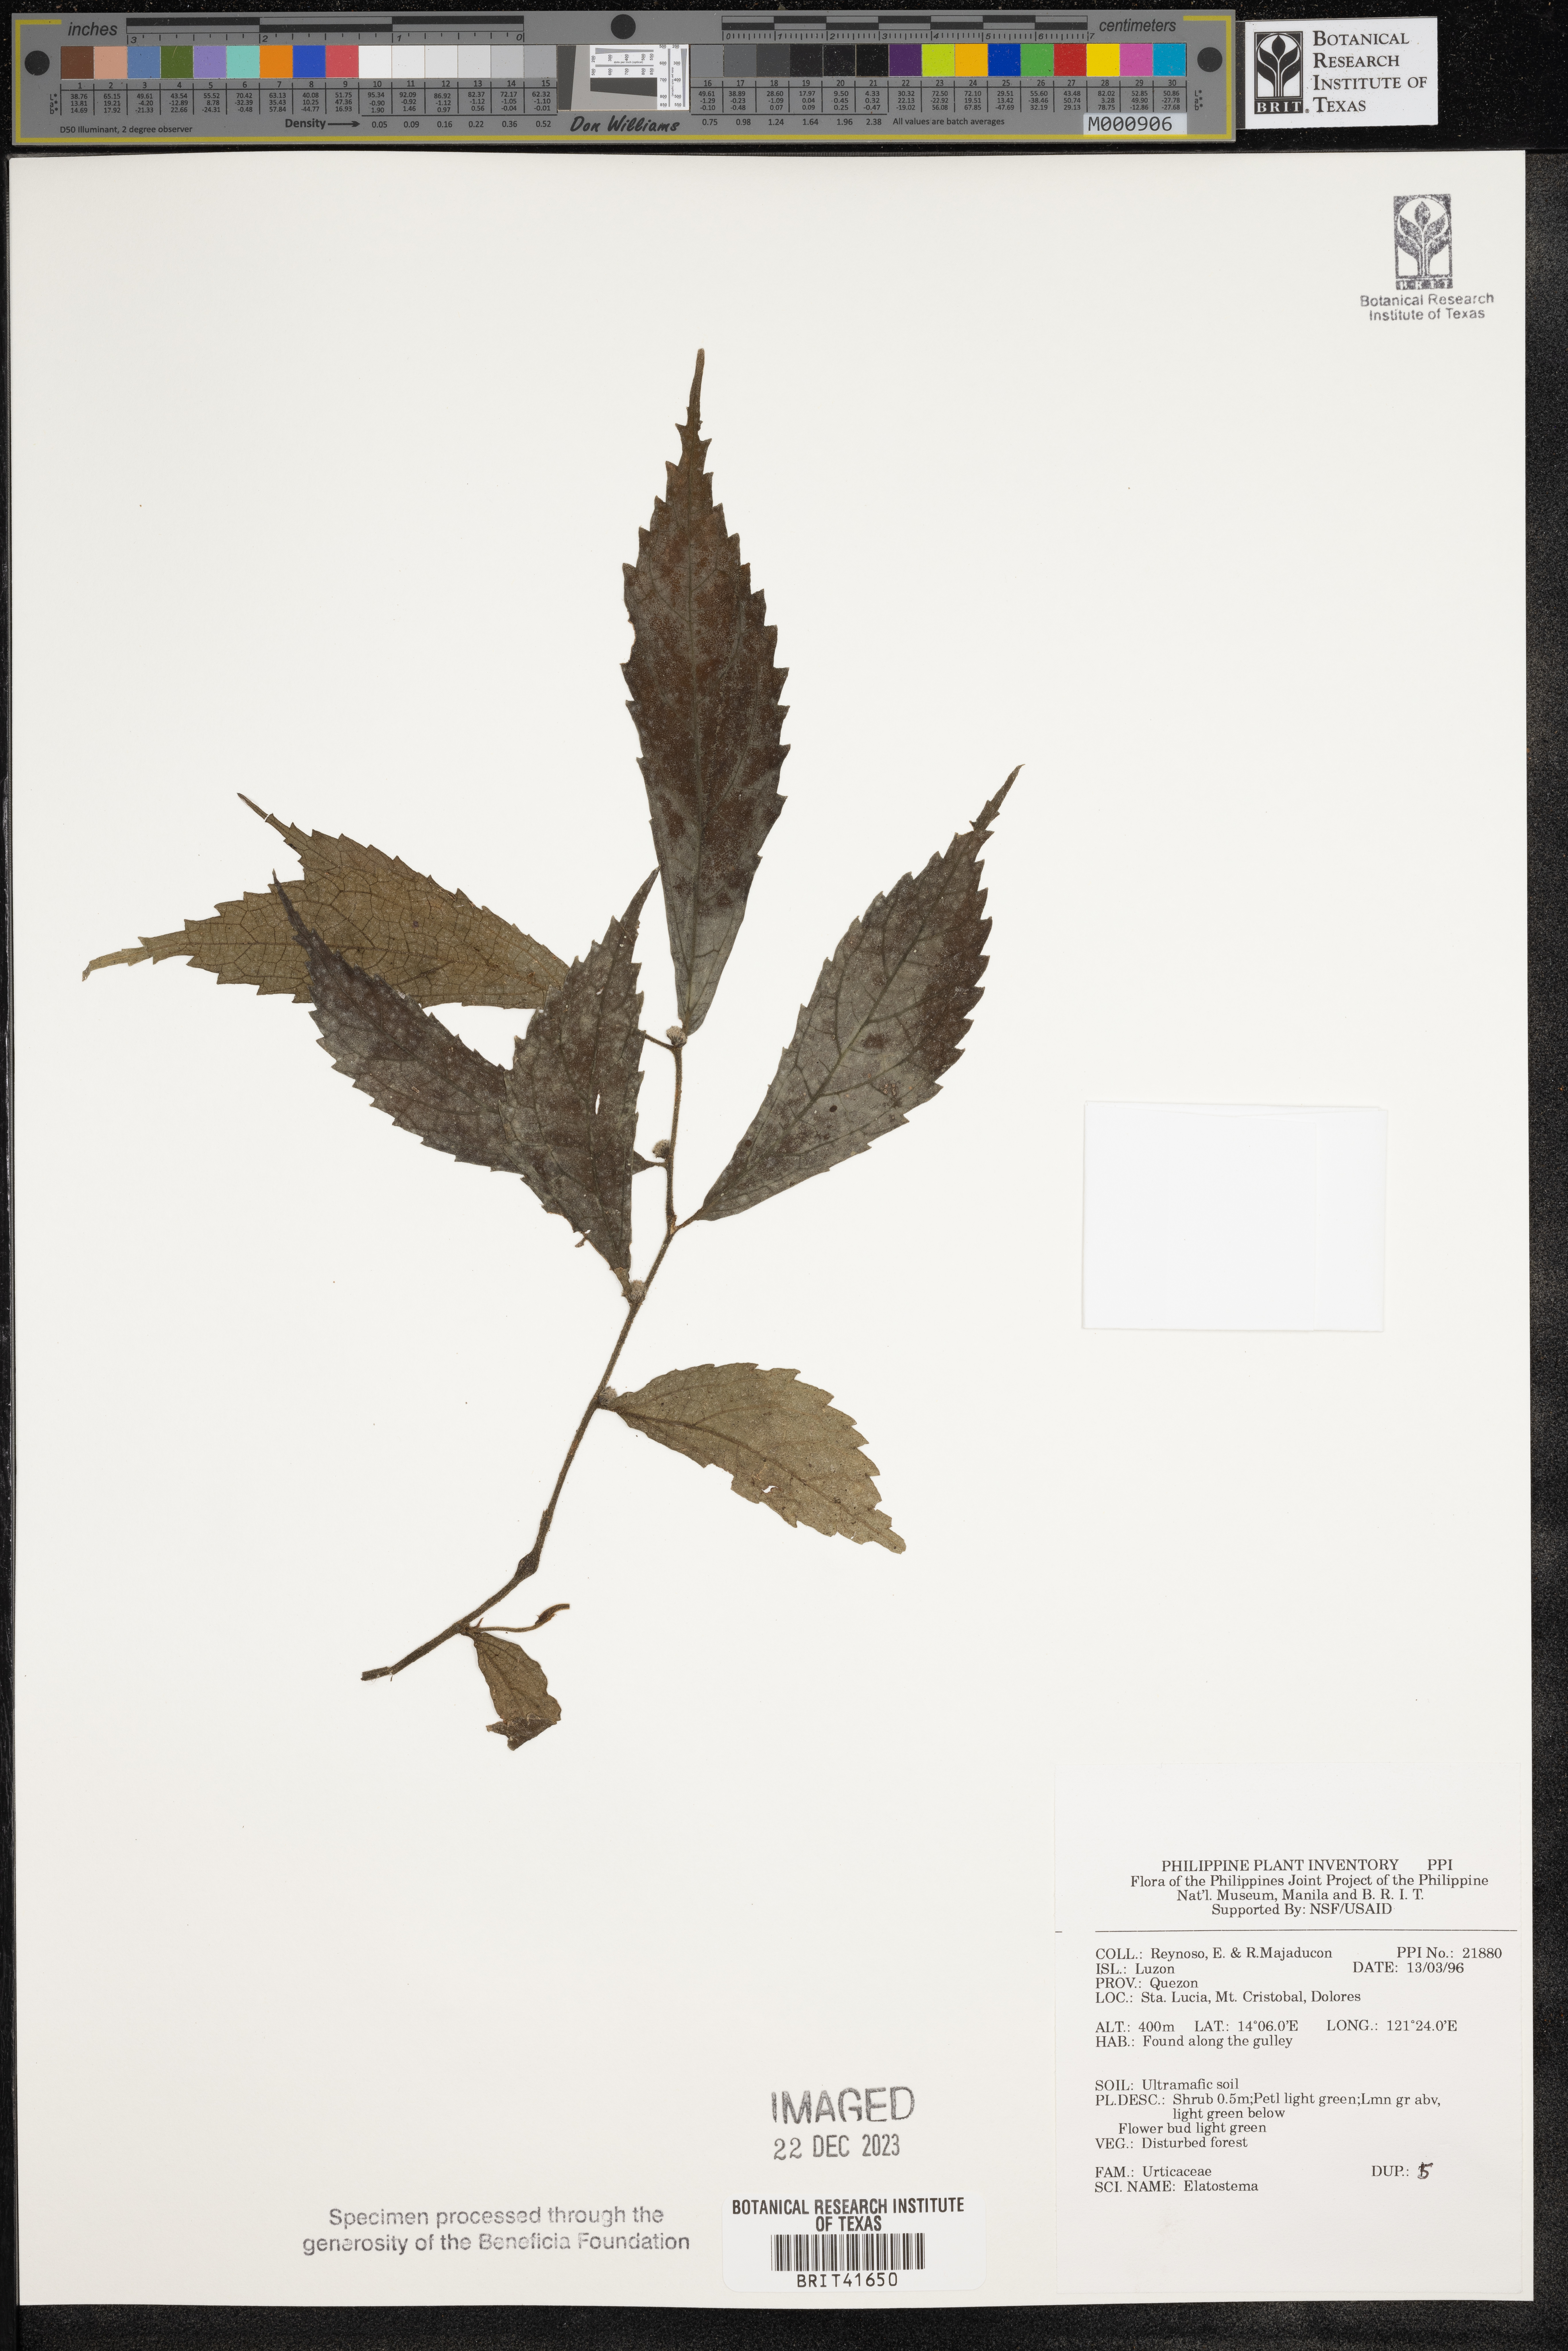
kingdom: Plantae
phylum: Tracheophyta
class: Magnoliopsida
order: Rosales
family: Urticaceae
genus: Elatostema
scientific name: Elatostema
